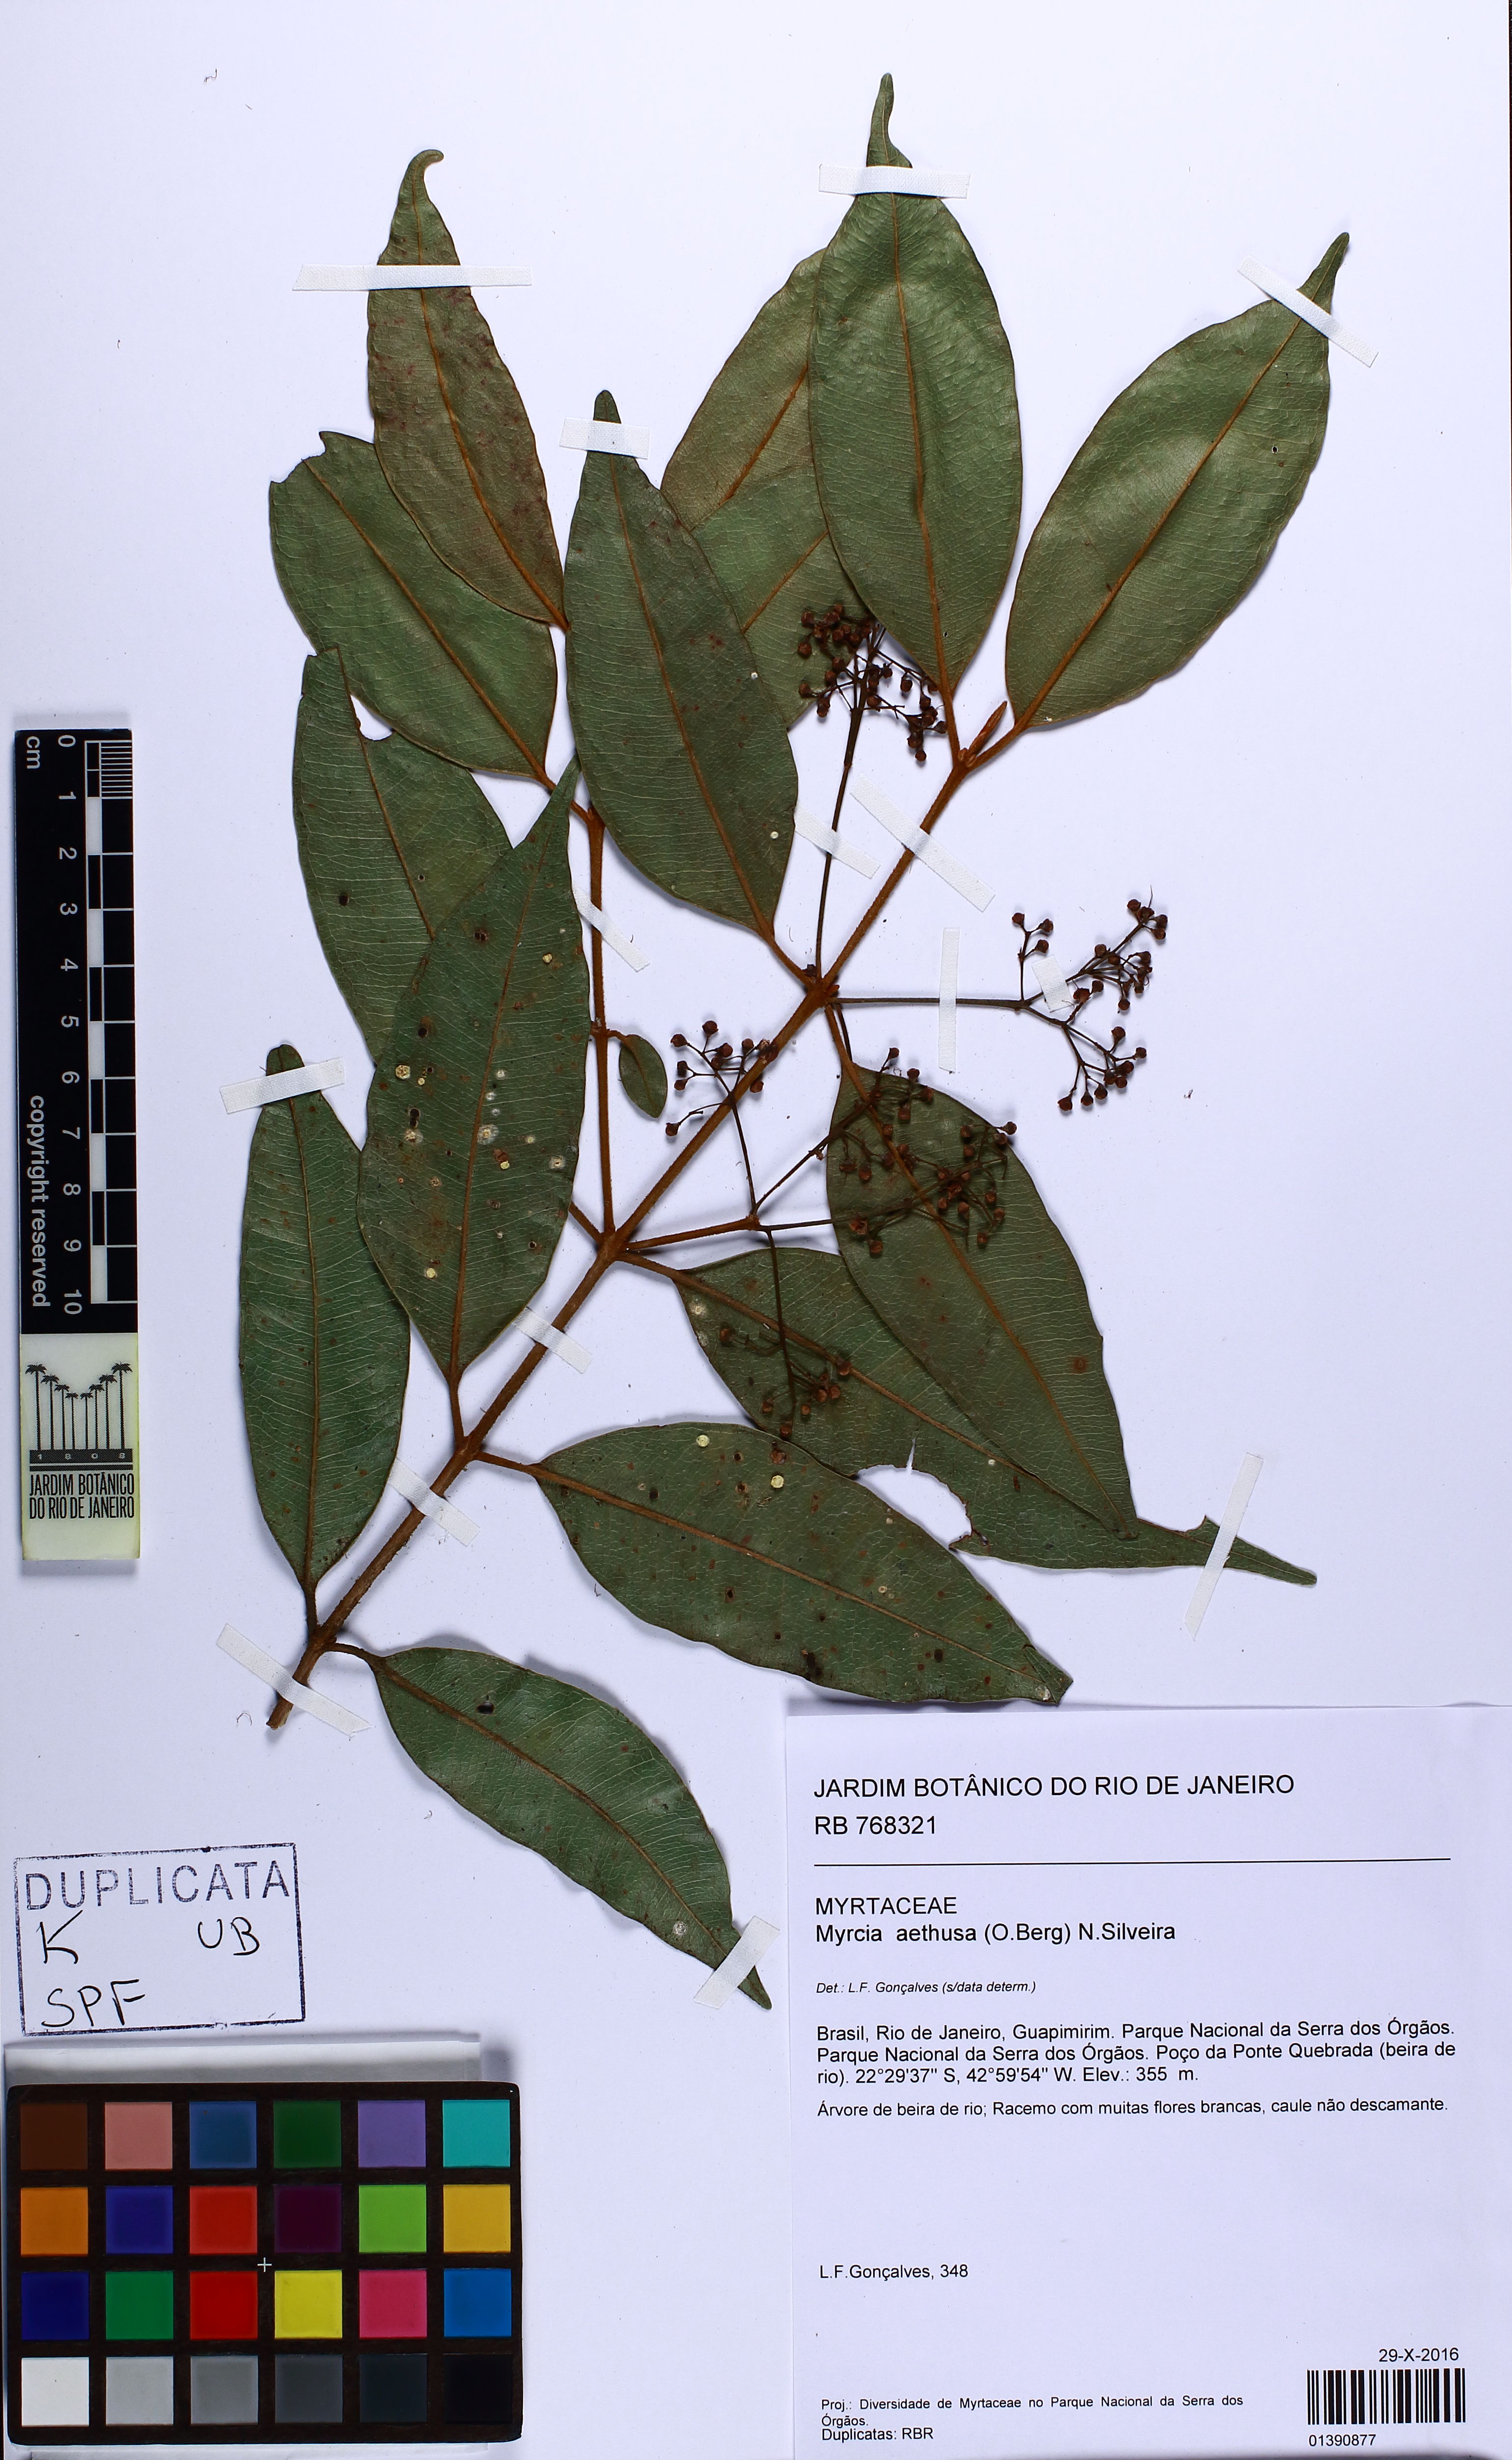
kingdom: Plantae
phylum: Tracheophyta
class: Magnoliopsida
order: Myrtales
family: Myrtaceae
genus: Myrcia
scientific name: Myrcia aethusa
